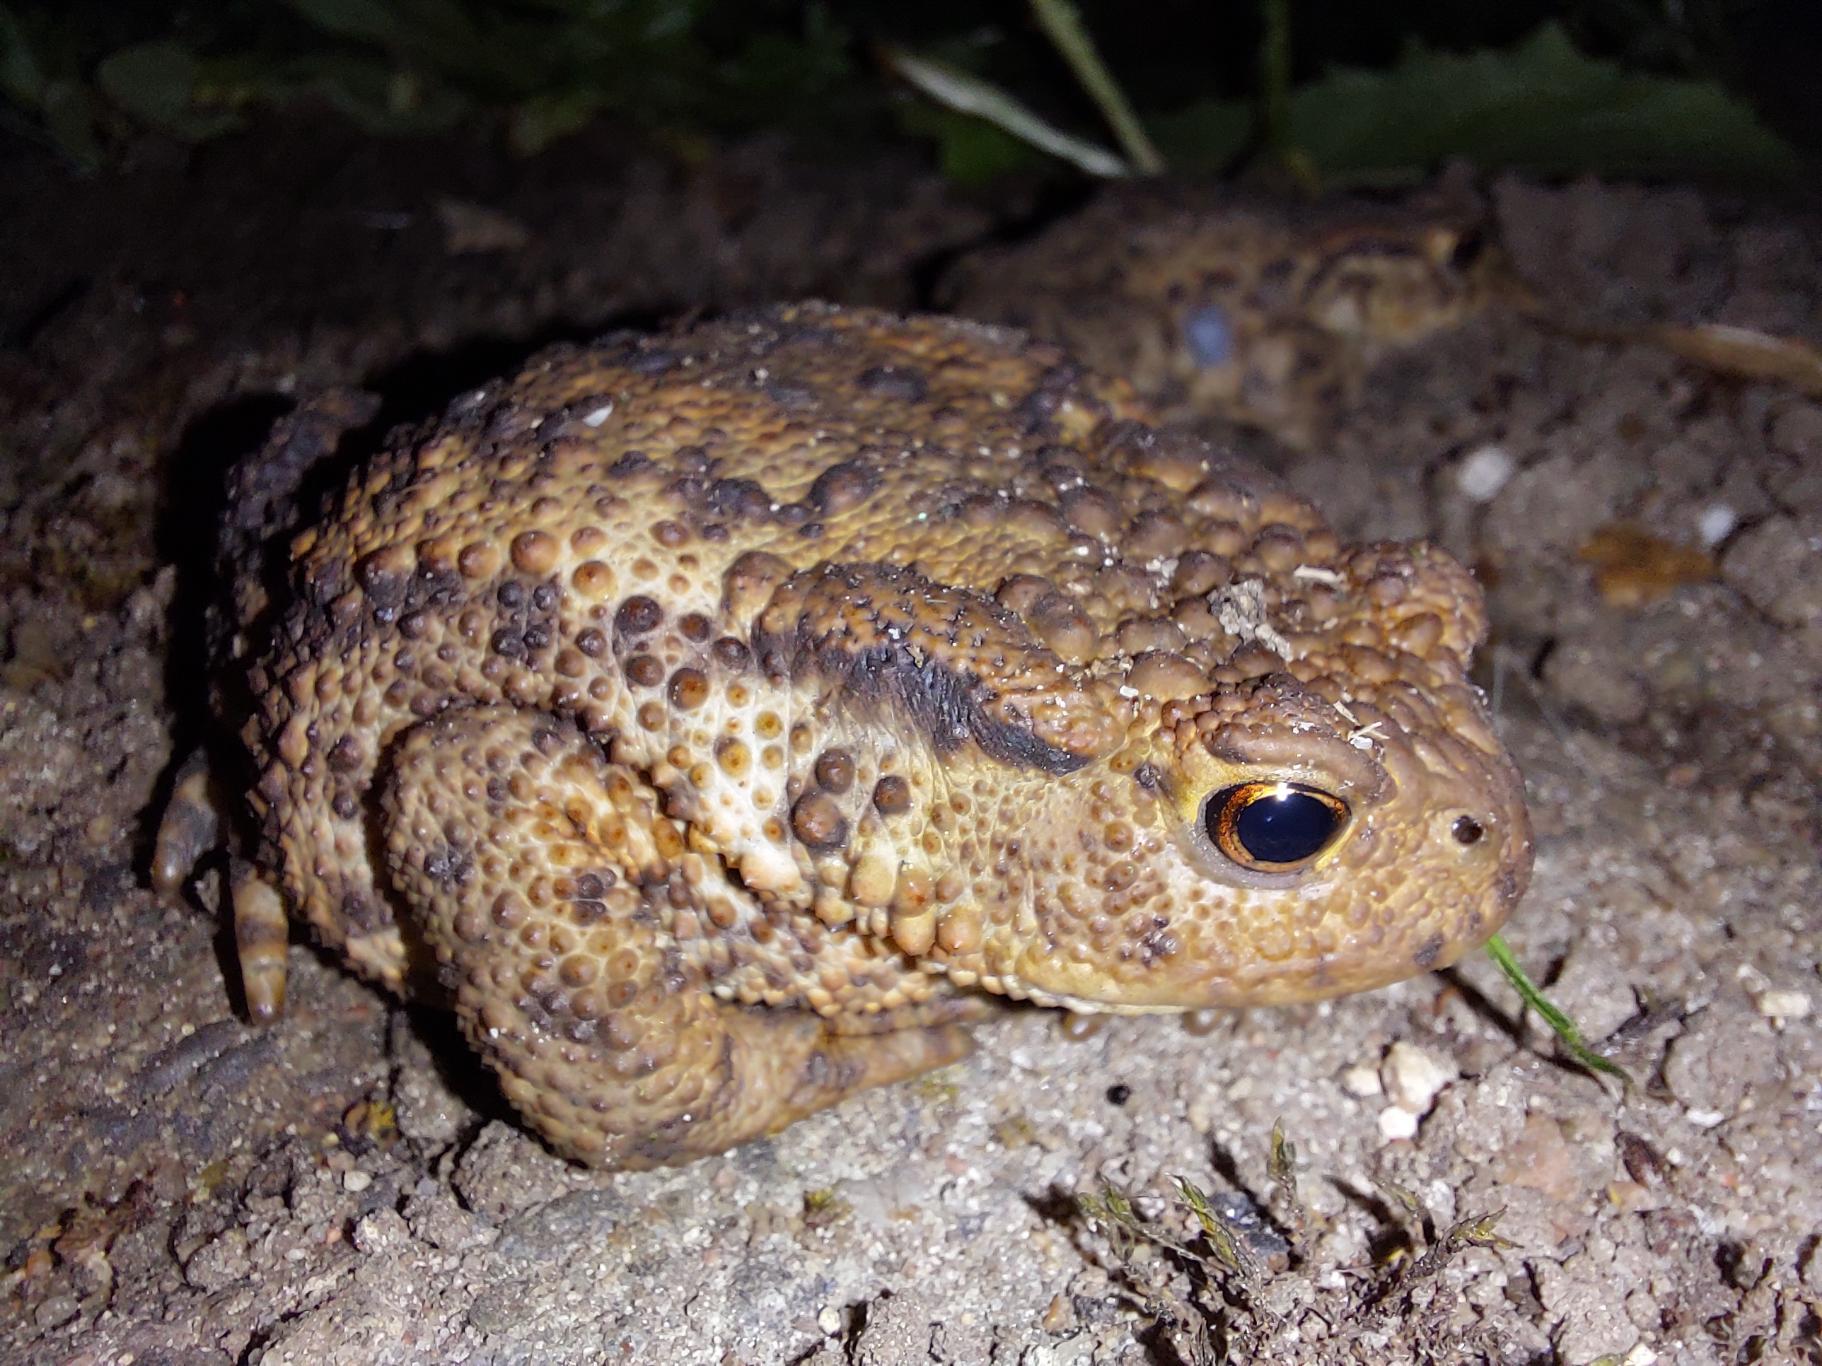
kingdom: Animalia
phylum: Chordata
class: Amphibia
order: Anura
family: Bufonidae
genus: Bufo
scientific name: Bufo bufo
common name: Skrubtudse
